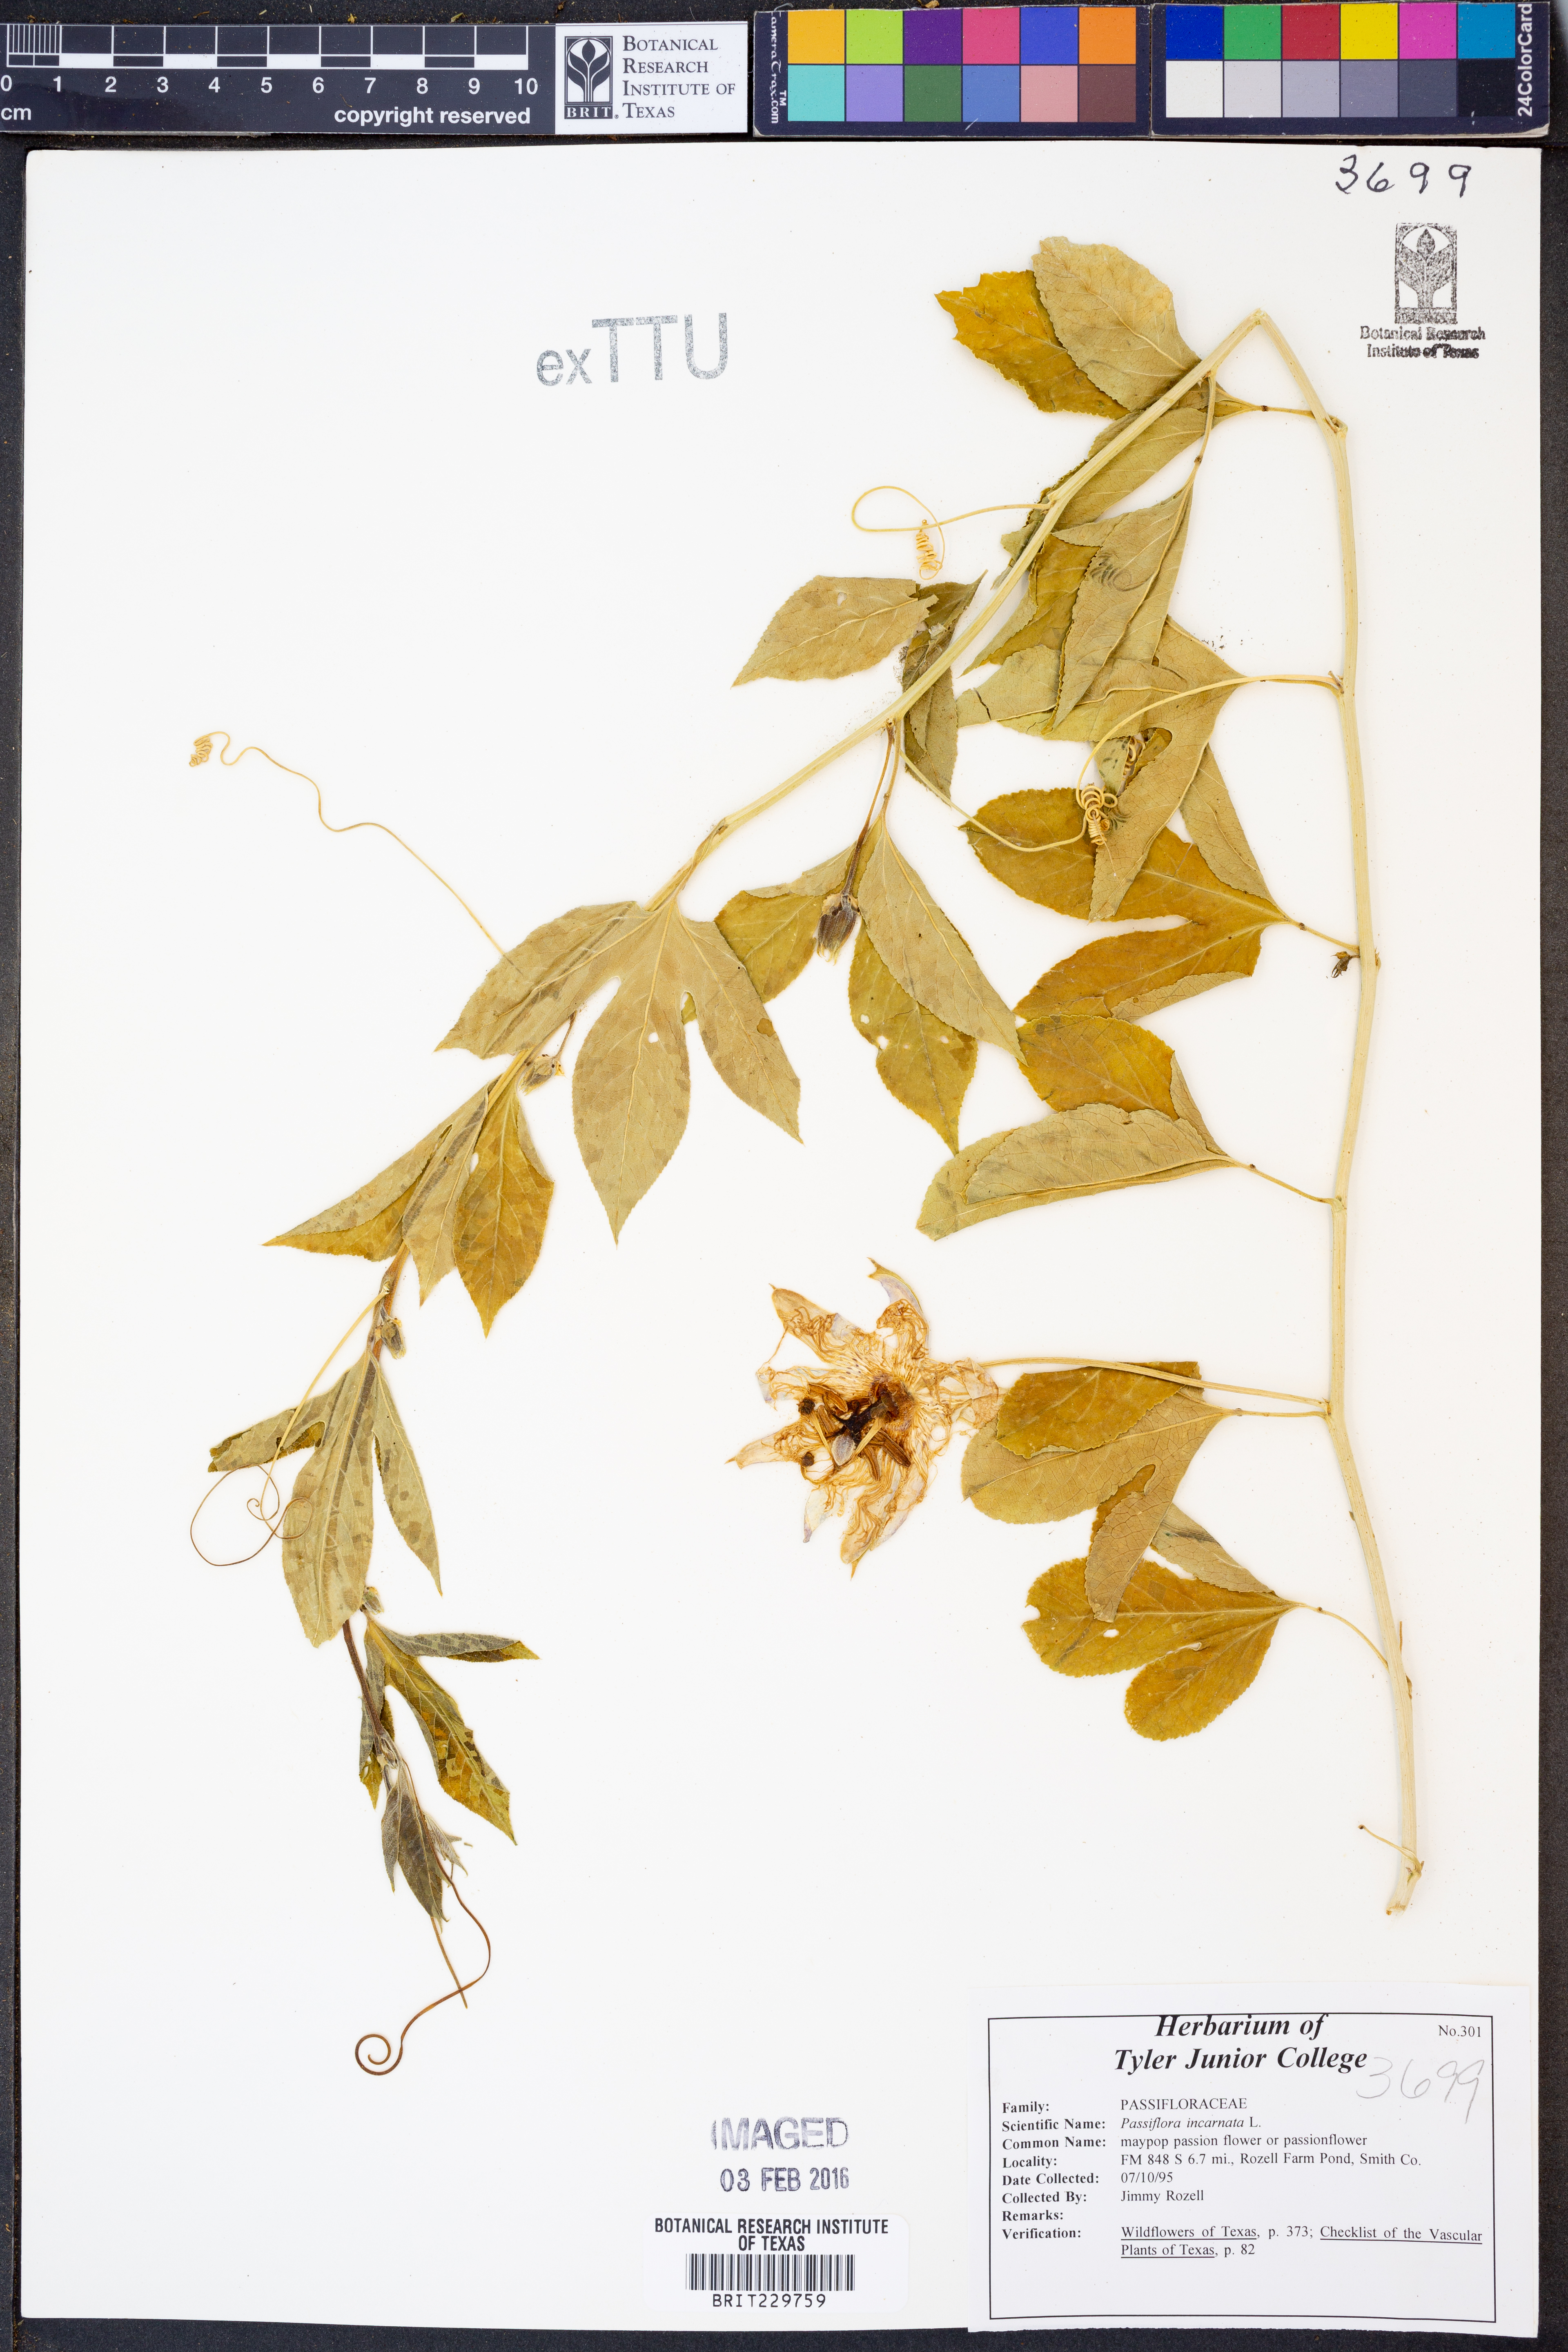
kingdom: Plantae
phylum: Tracheophyta
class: Magnoliopsida
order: Malpighiales
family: Passifloraceae
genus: Passiflora
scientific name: Passiflora incarnata
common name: Apricot-vine
